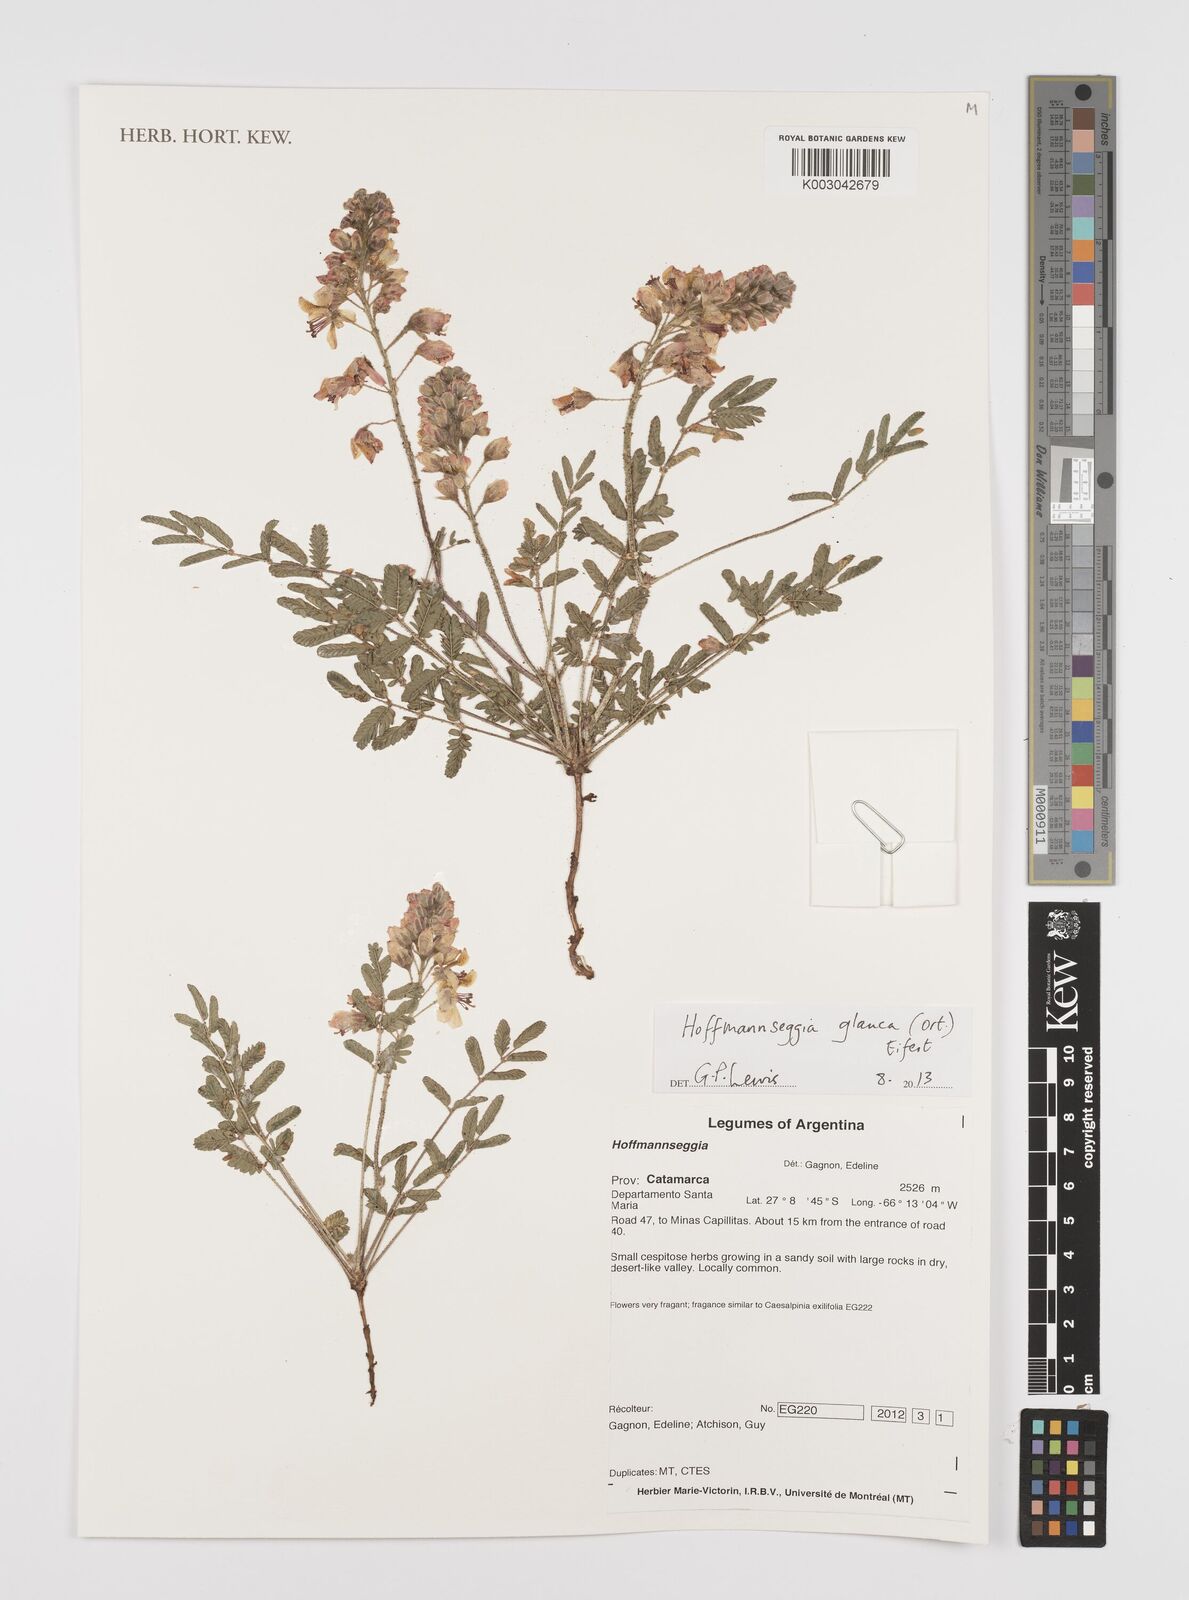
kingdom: Plantae
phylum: Tracheophyta
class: Magnoliopsida
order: Fabales
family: Fabaceae
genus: Hoffmannseggia
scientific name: Hoffmannseggia glauca
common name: Pignut
